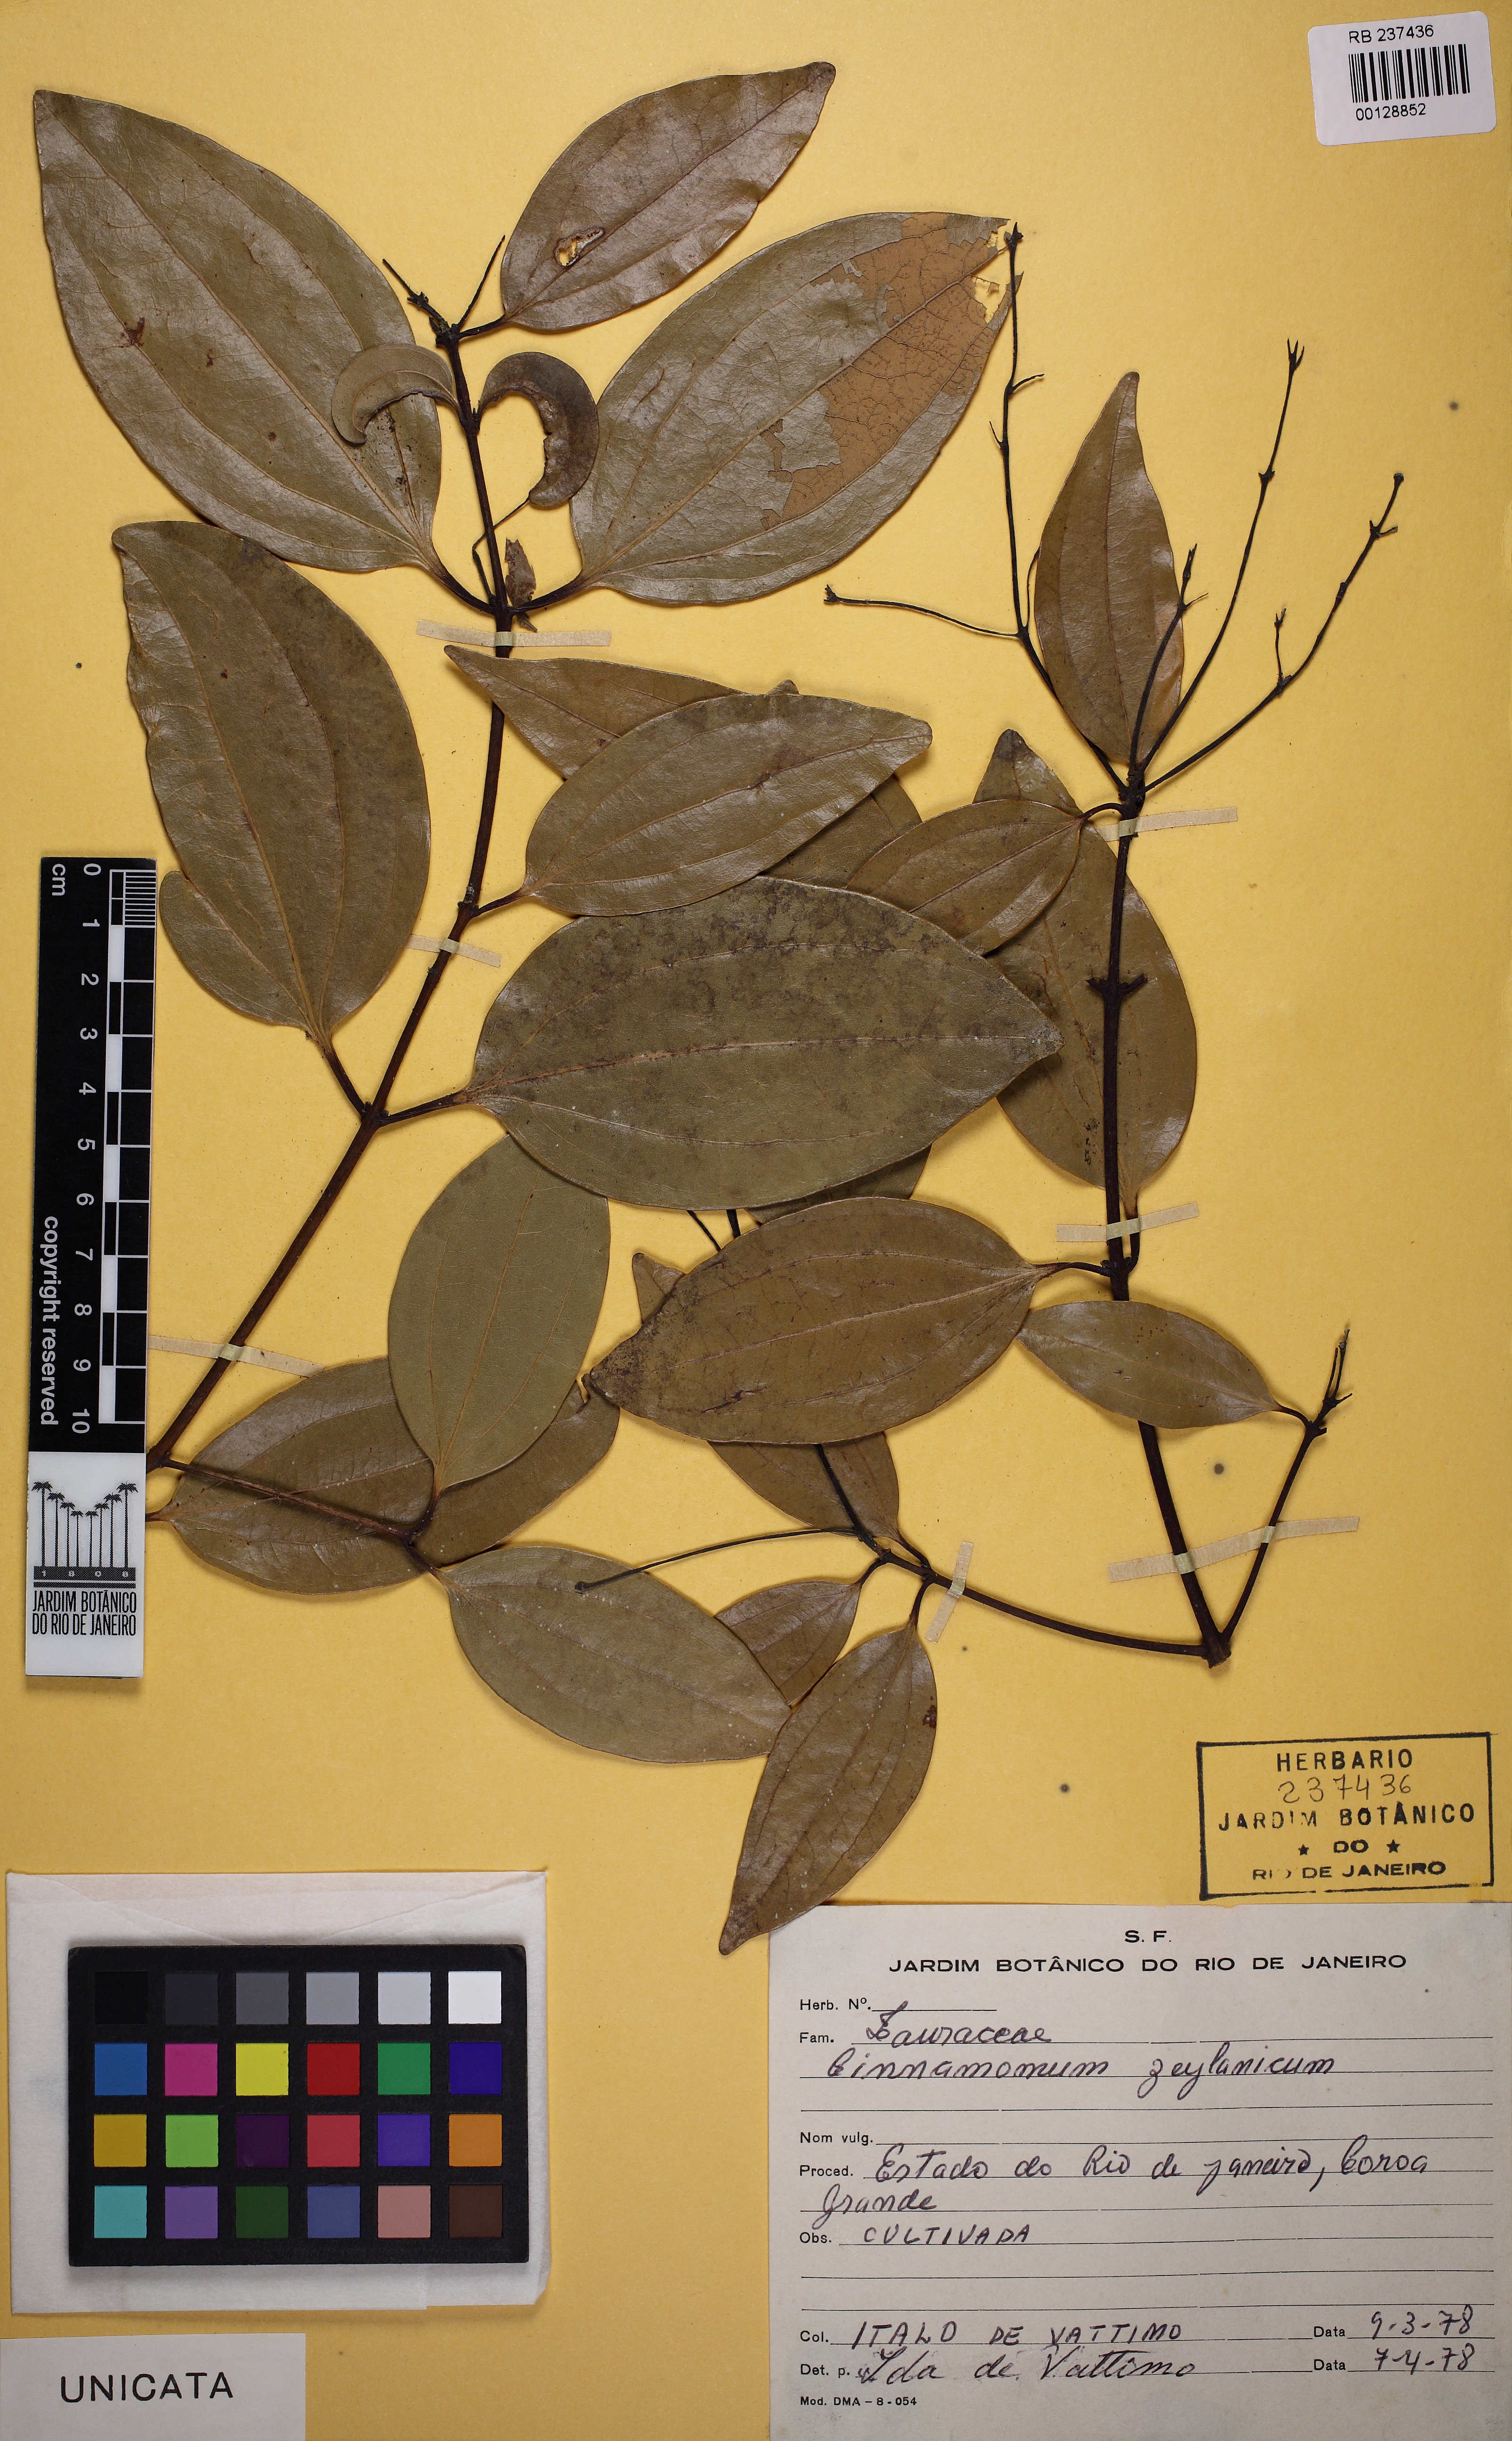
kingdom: Plantae
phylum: Tracheophyta
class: Magnoliopsida
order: Laurales
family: Lauraceae
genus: Cinnamomum
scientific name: Cinnamomum verum
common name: Cinnamon
